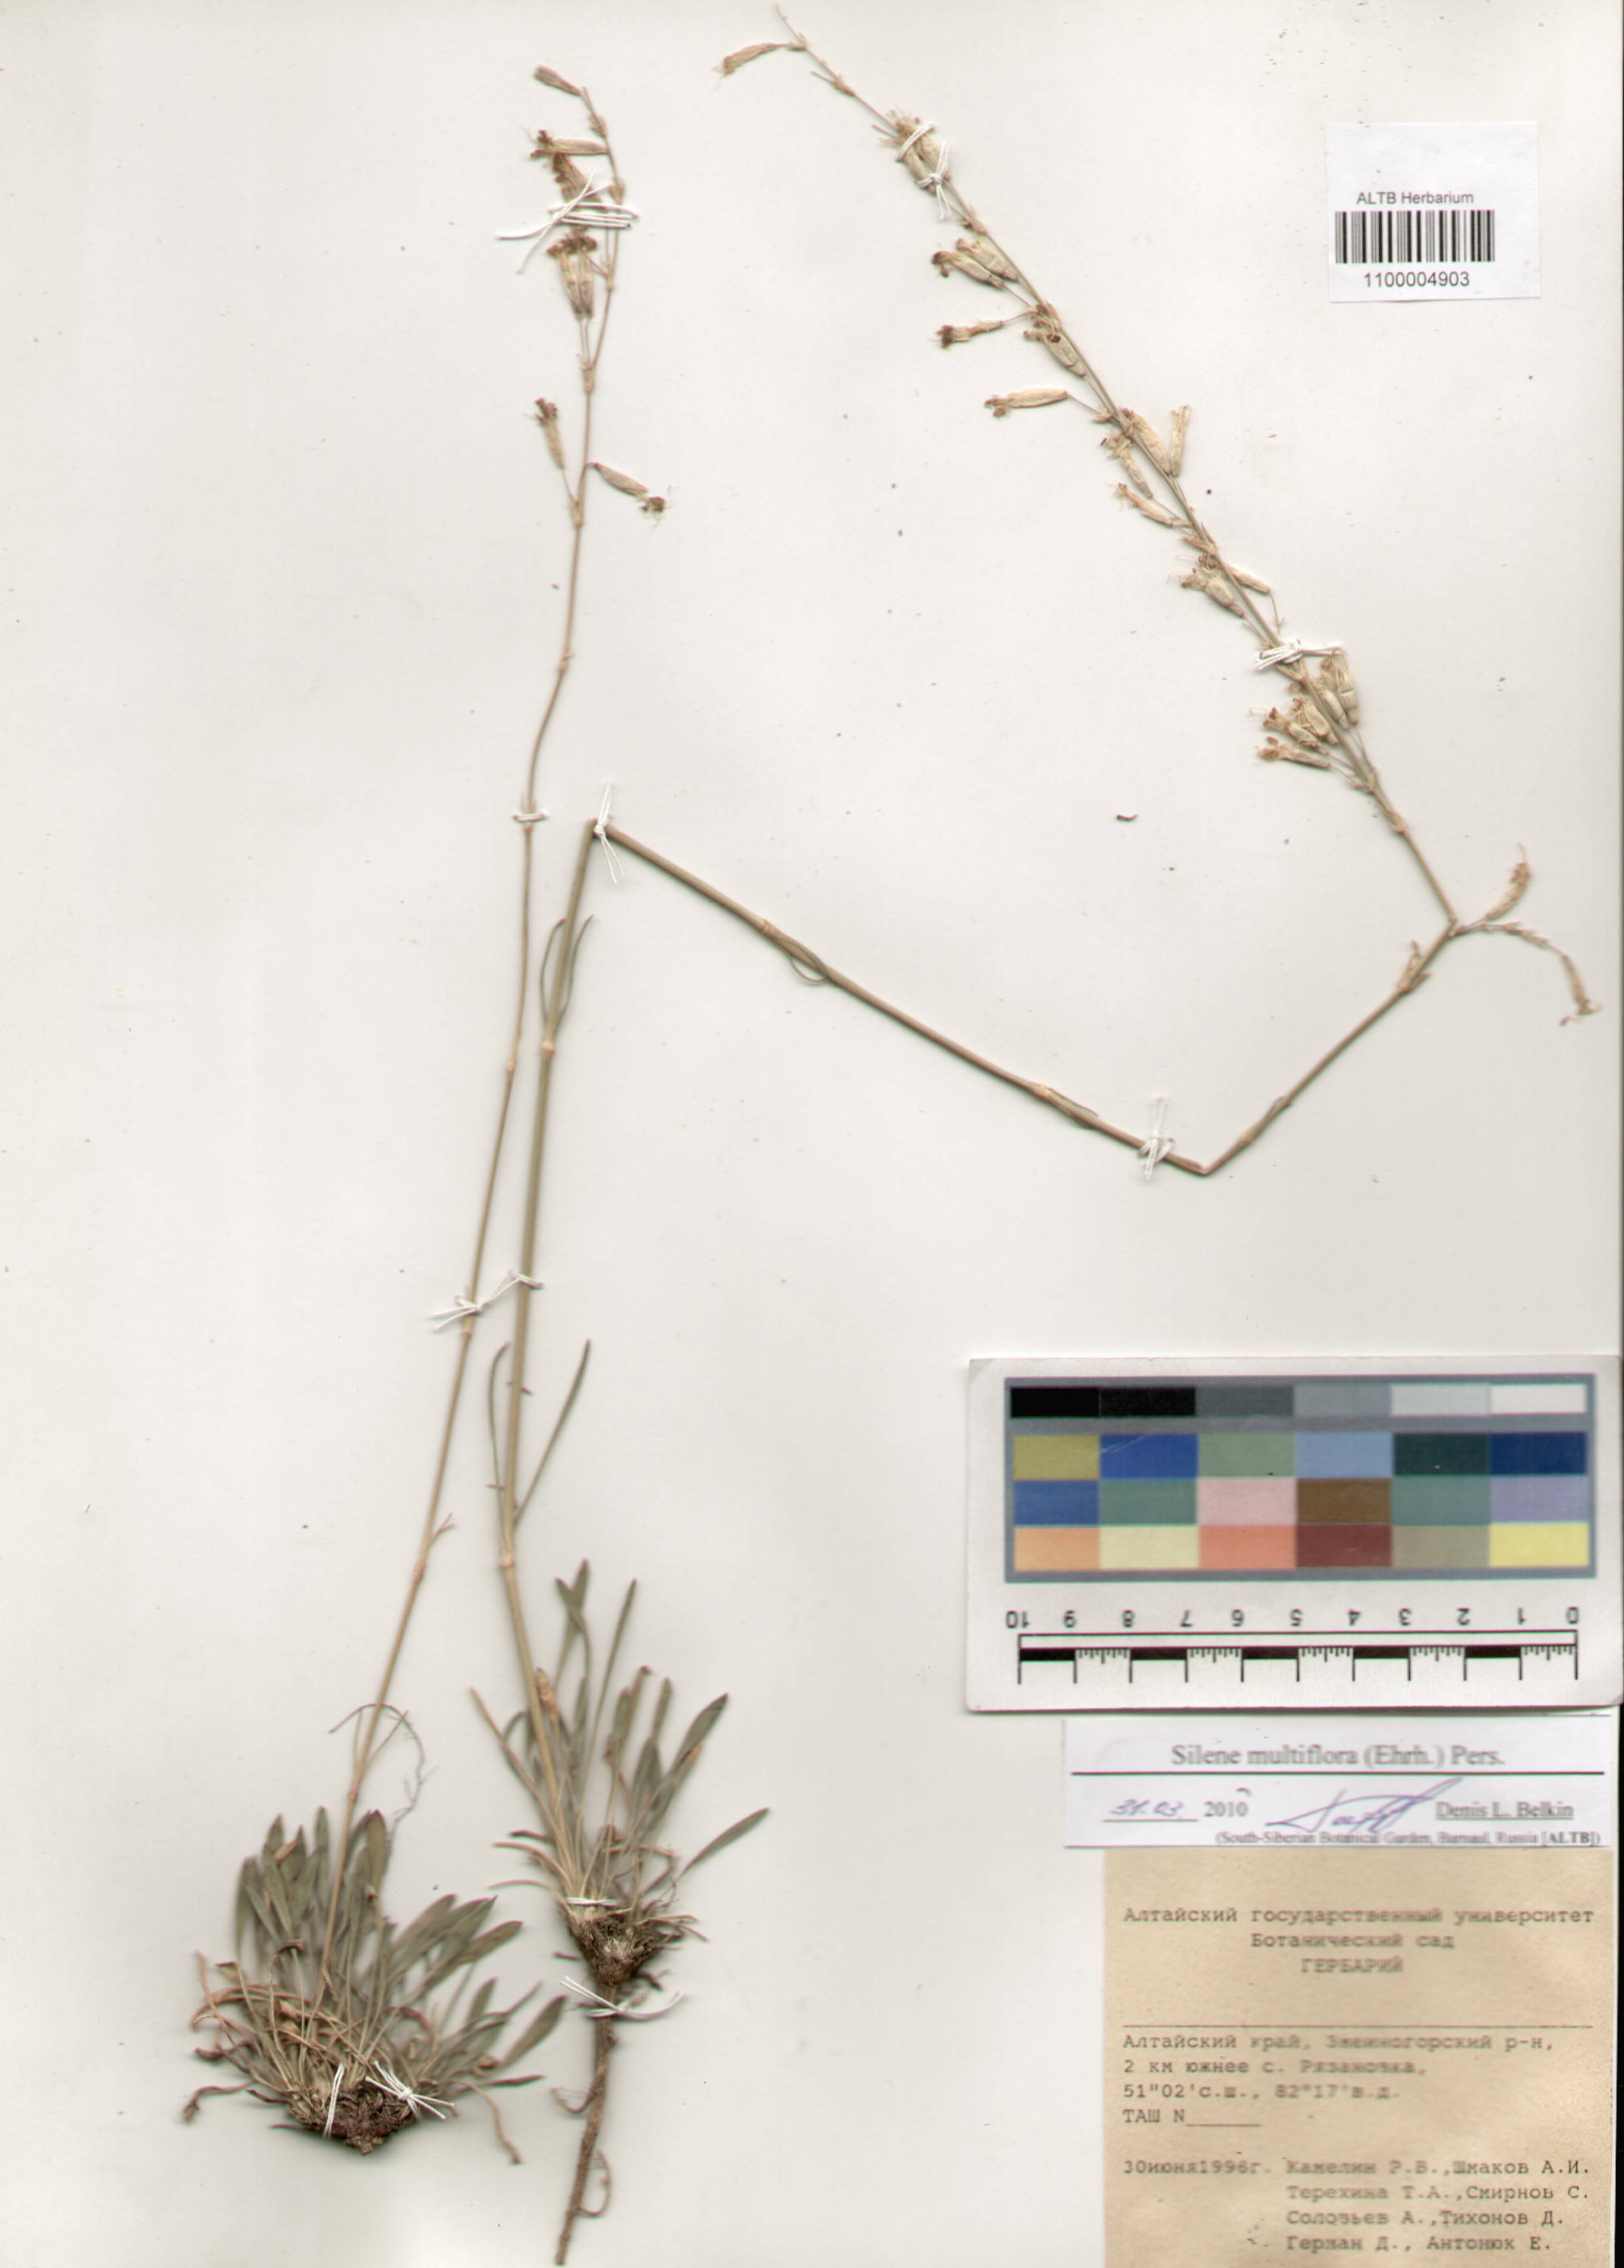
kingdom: Plantae
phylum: Tracheophyta
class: Magnoliopsida
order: Caryophyllales
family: Caryophyllaceae
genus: Silene
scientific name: Silene multiflora
